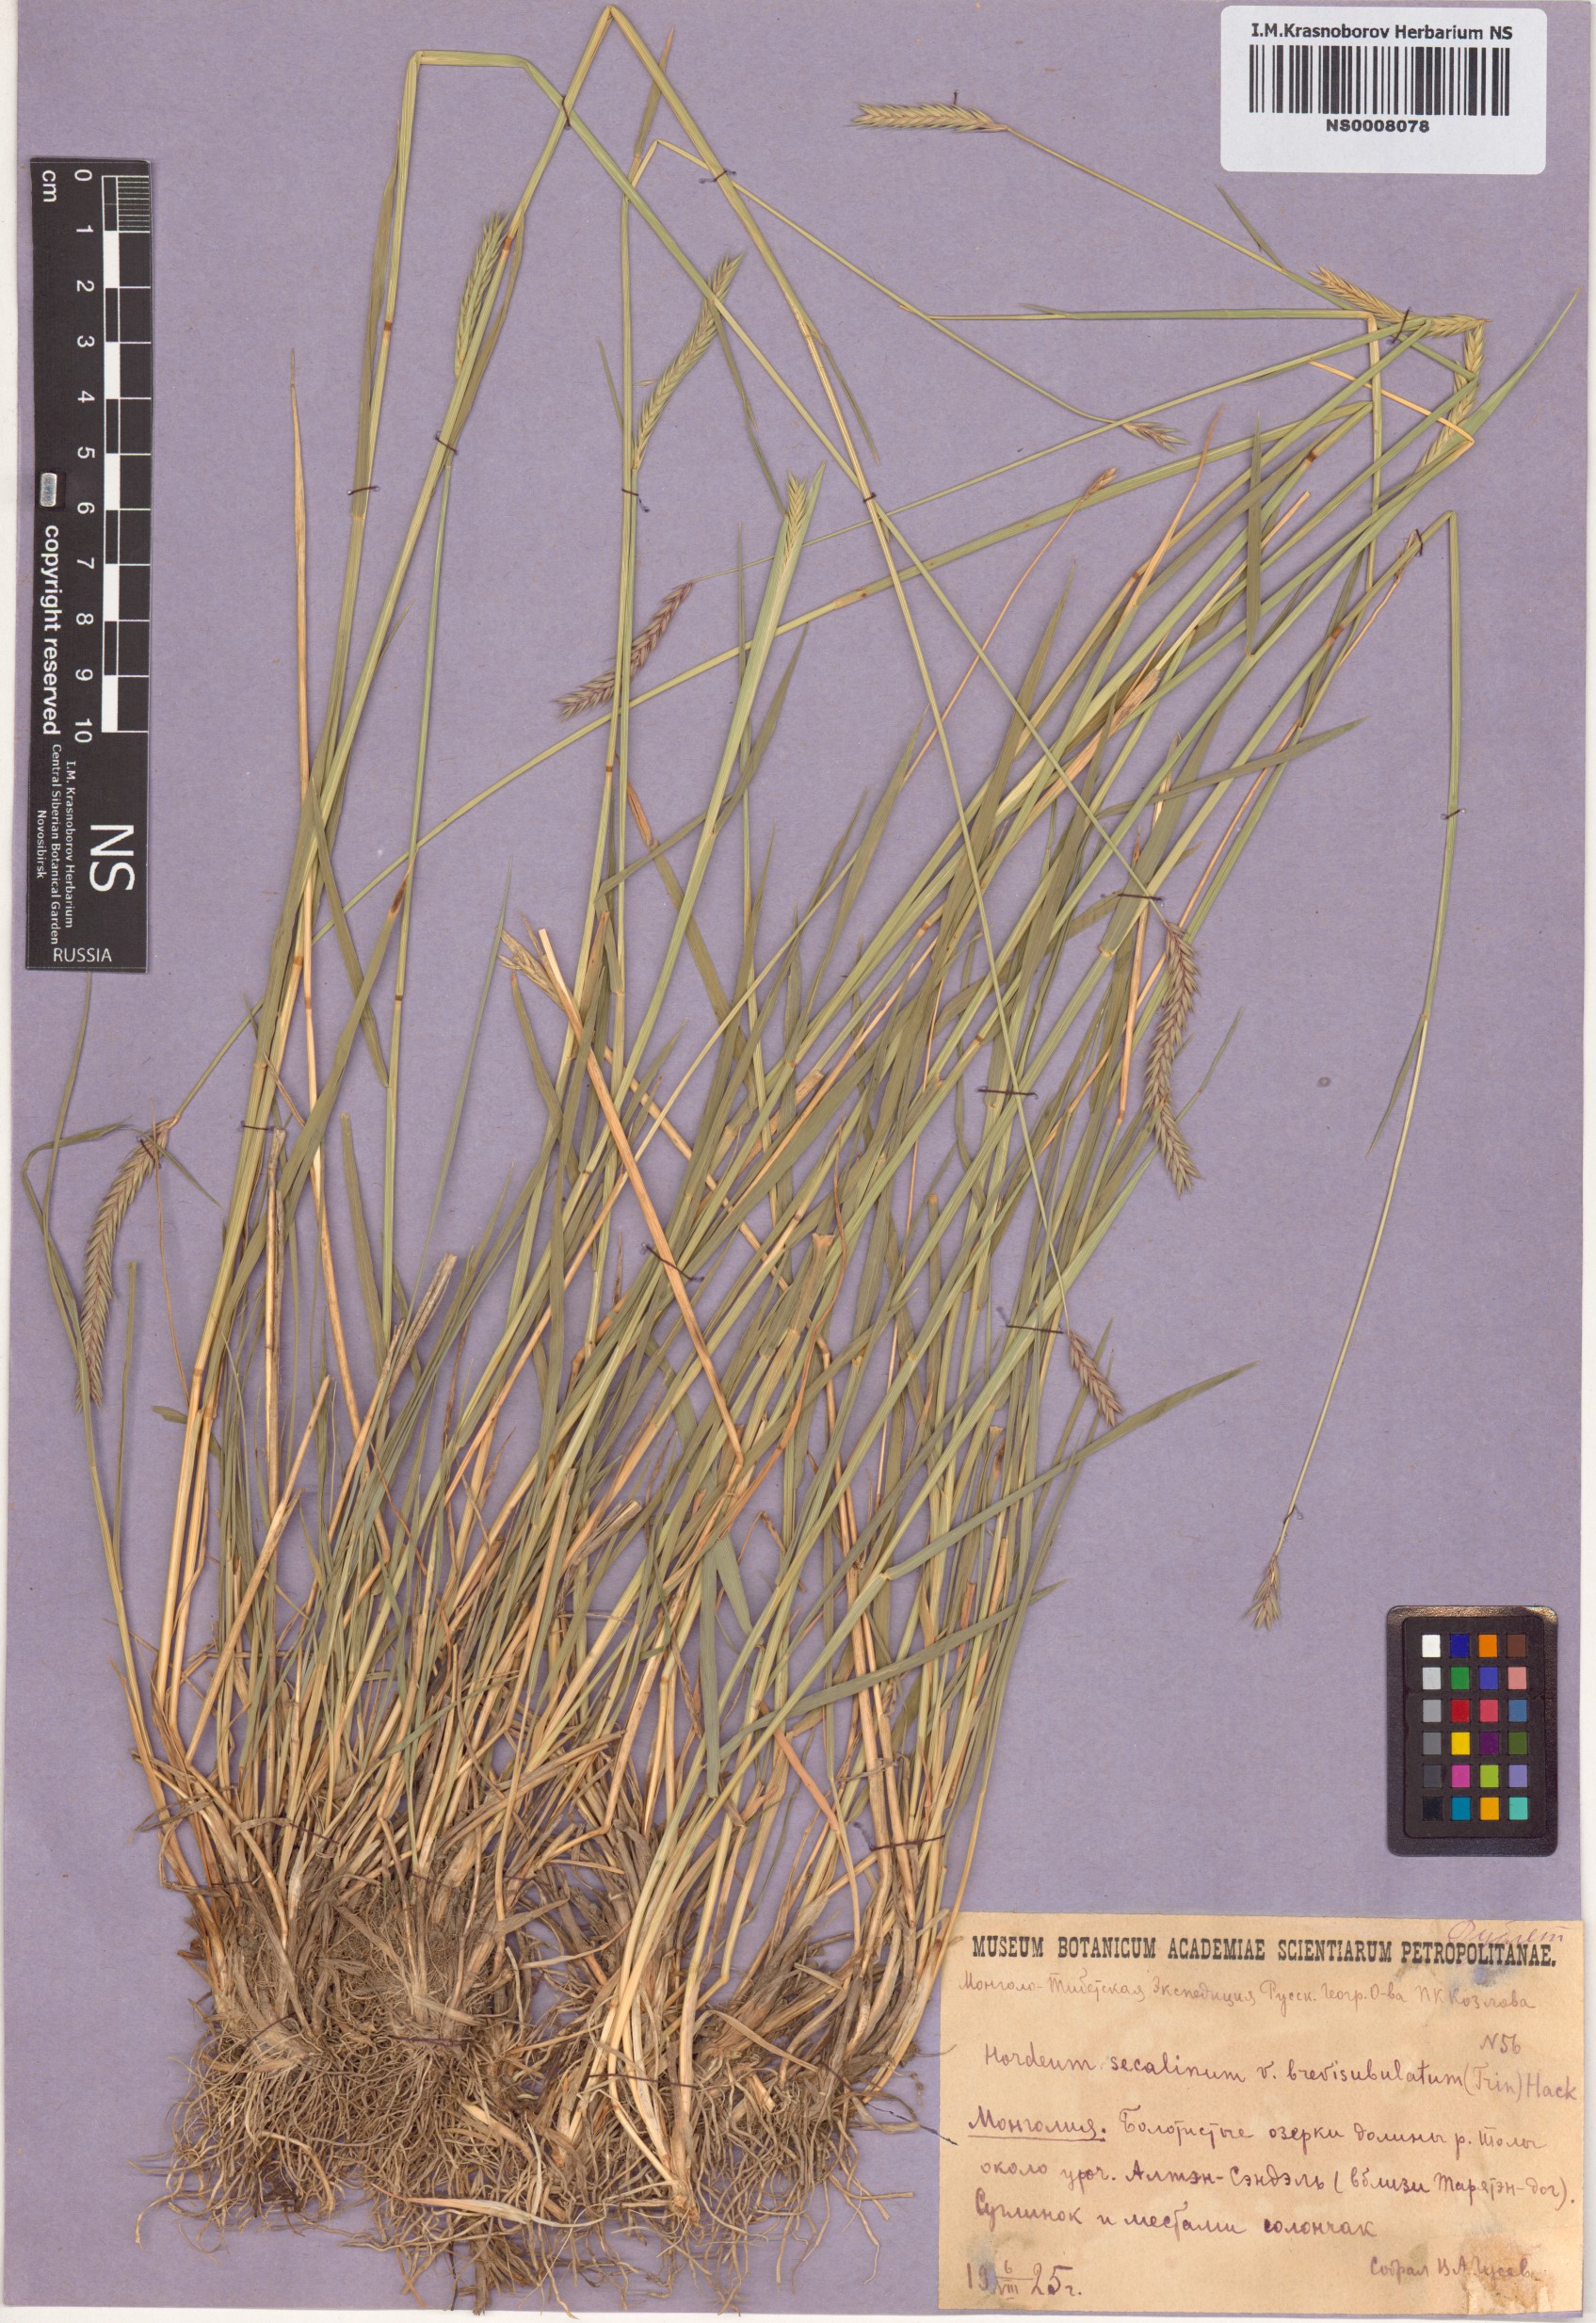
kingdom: Plantae
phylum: Tracheophyta
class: Liliopsida
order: Poales
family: Poaceae
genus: Hordeum
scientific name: Hordeum brevisubulatum
